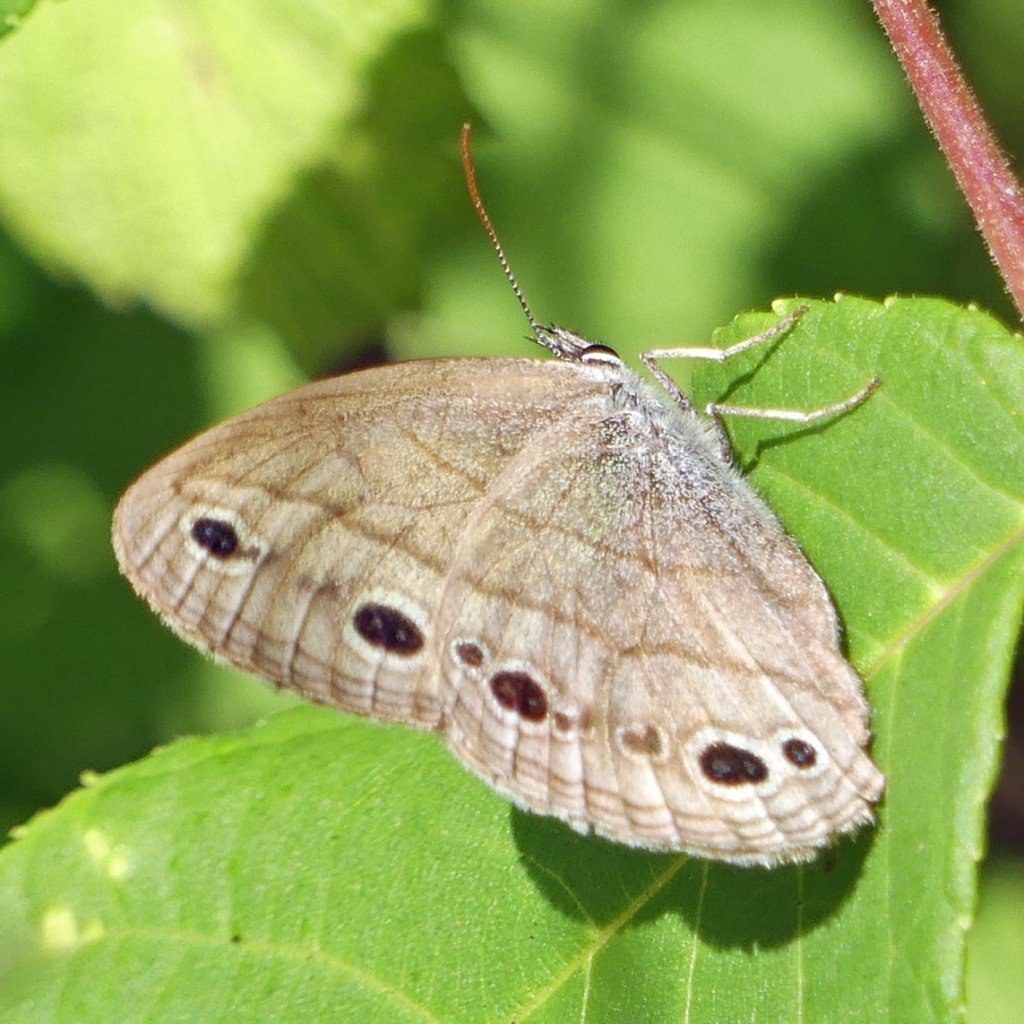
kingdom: Animalia
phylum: Arthropoda
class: Insecta
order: Lepidoptera
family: Nymphalidae
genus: Euptychia
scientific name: Euptychia cymela
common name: Little Wood Satyr
